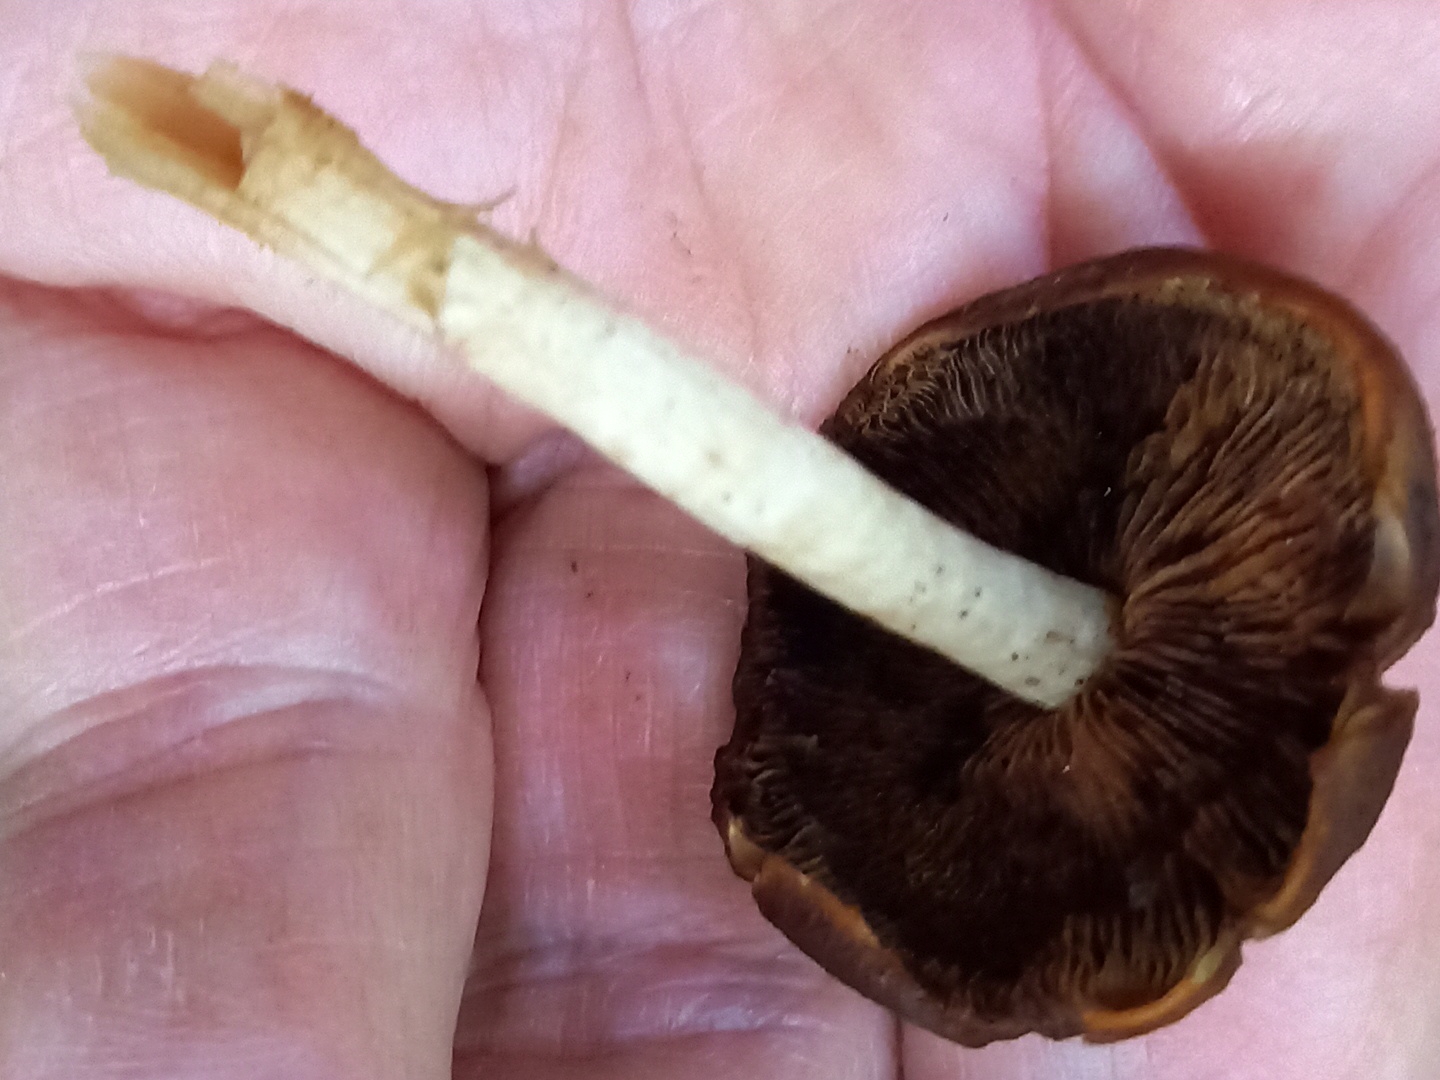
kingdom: Fungi
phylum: Basidiomycota
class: Agaricomycetes
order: Agaricales
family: Psathyrellaceae
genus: Psathyrella
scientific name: Psathyrella piluliformis
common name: lysstokket mørkhat
